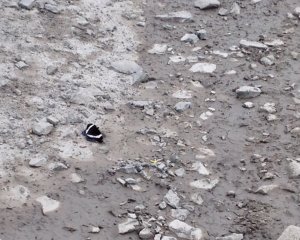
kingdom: Animalia
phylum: Arthropoda
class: Insecta
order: Lepidoptera
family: Nymphalidae
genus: Limenitis
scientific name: Limenitis arthemis
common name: Red-spotted Admiral
